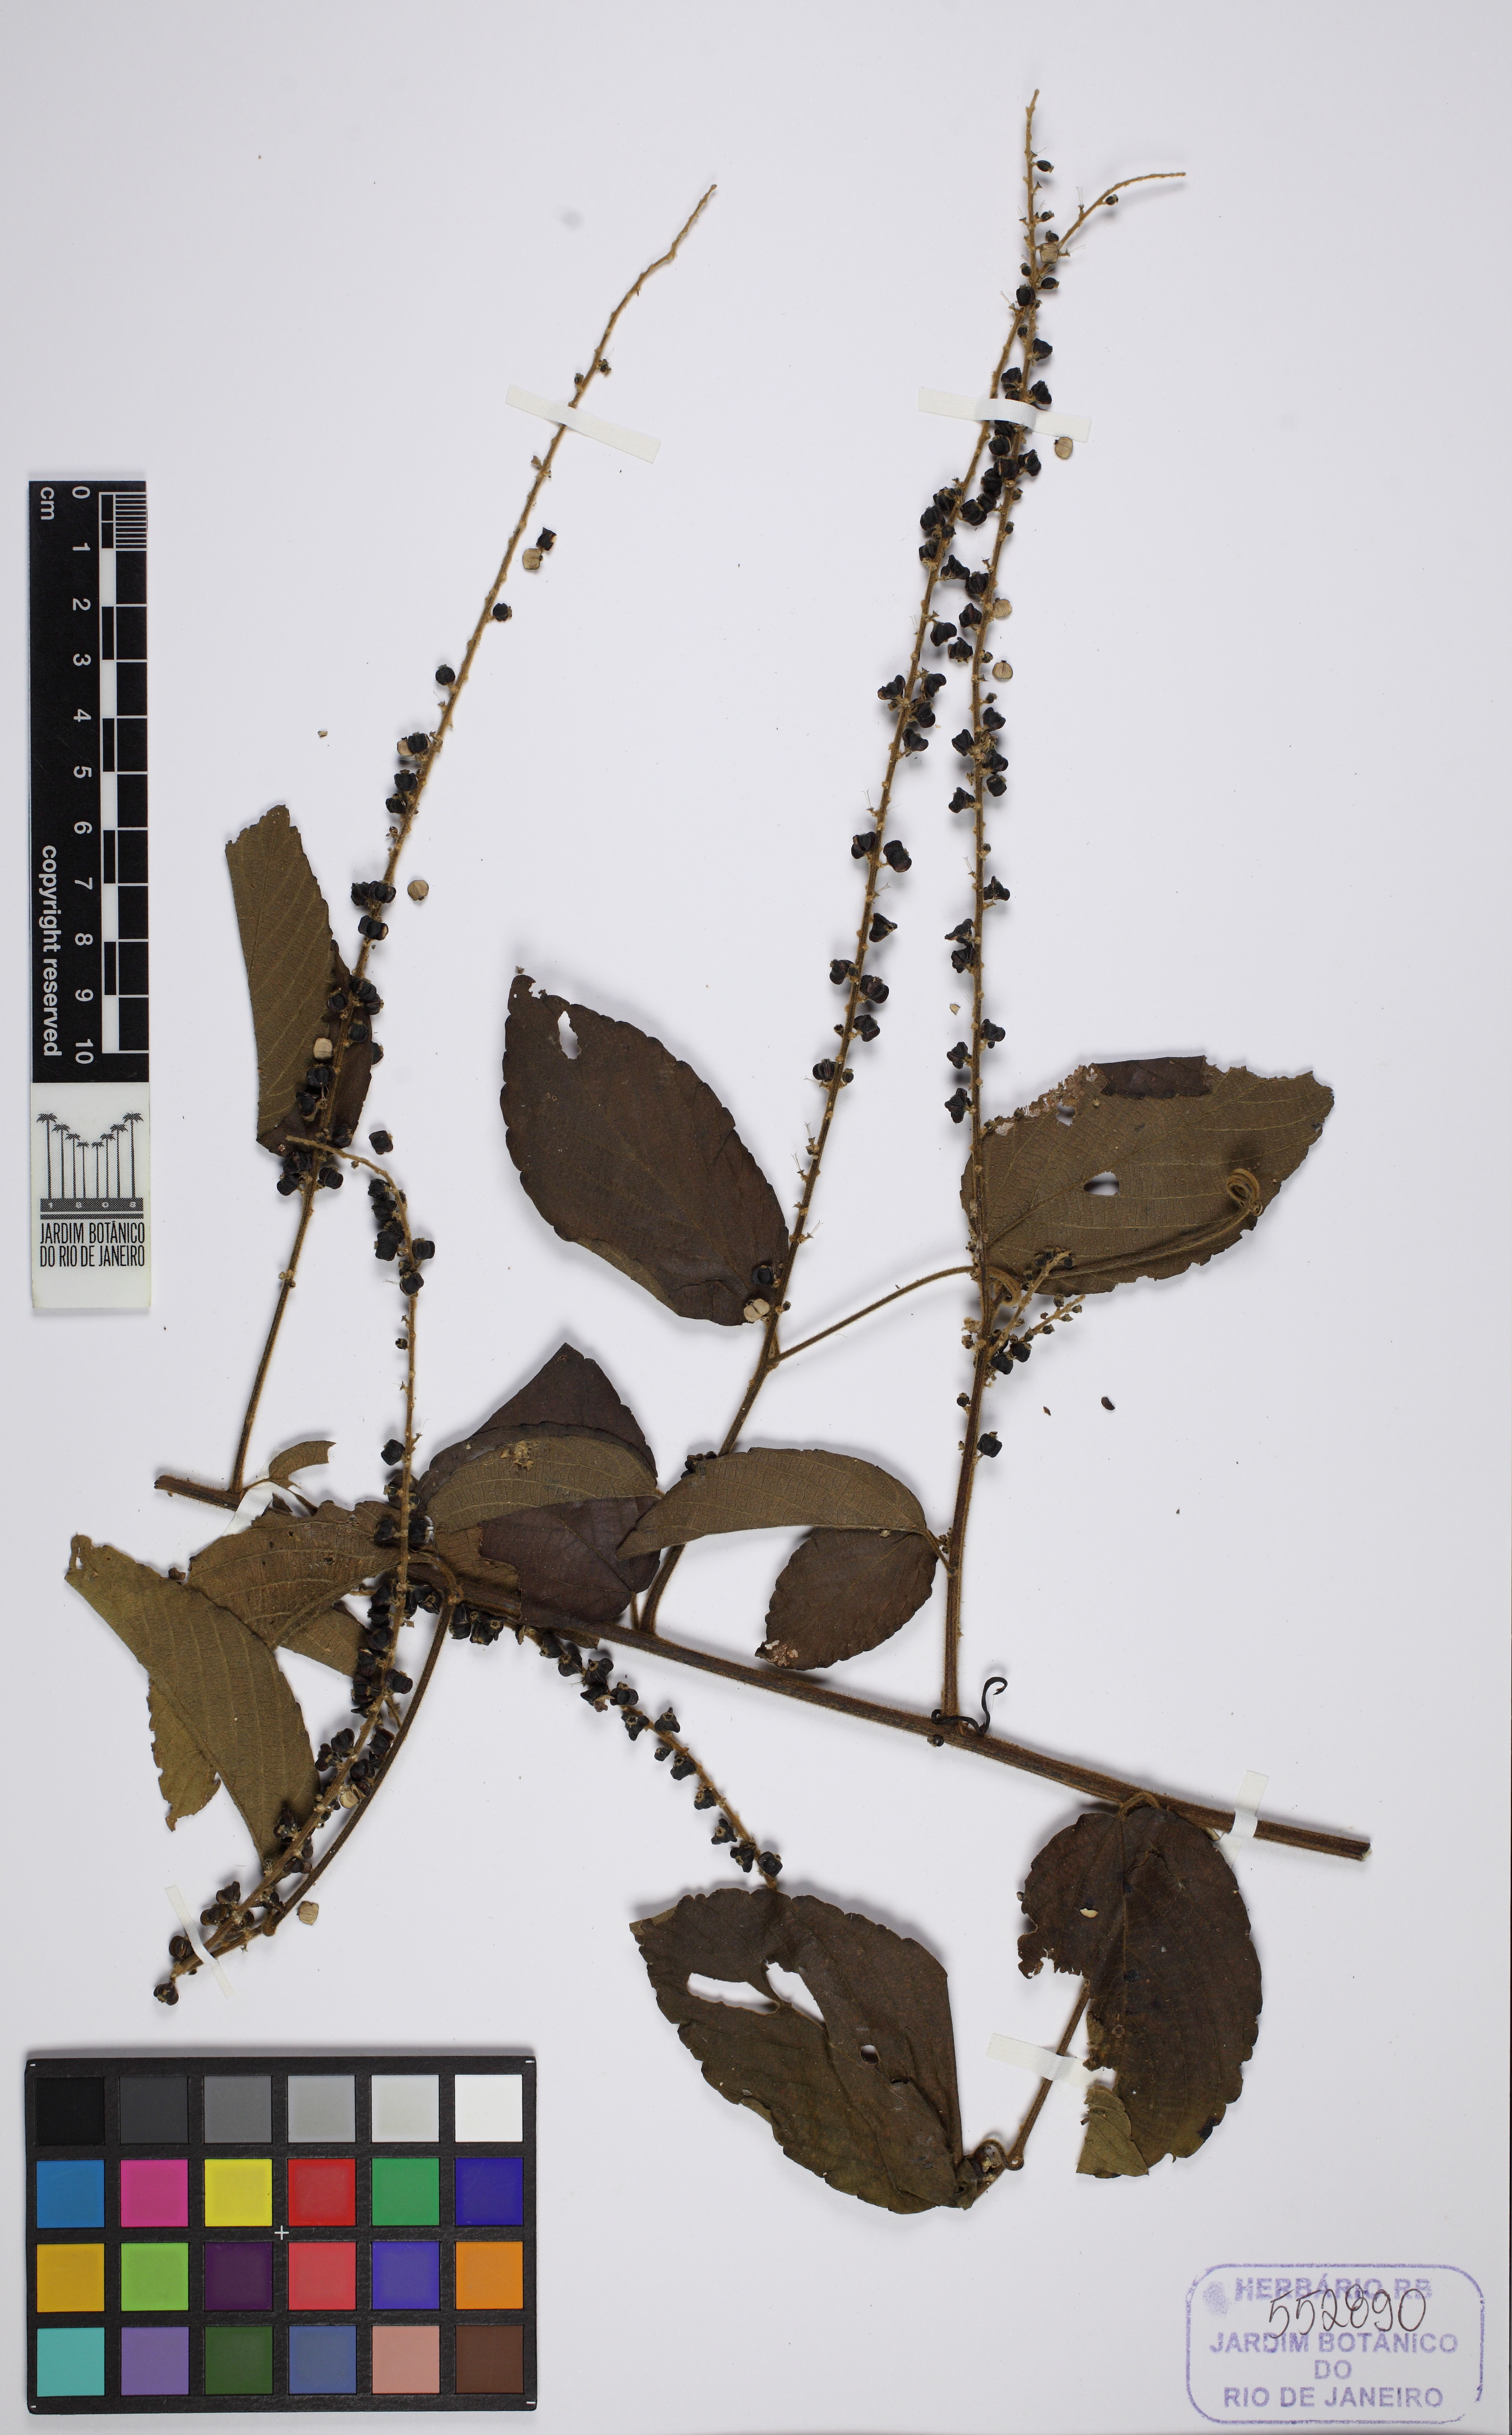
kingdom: Plantae
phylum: Tracheophyta
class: Magnoliopsida
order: Rosales
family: Rhamnaceae
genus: Gouania
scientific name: Gouania
